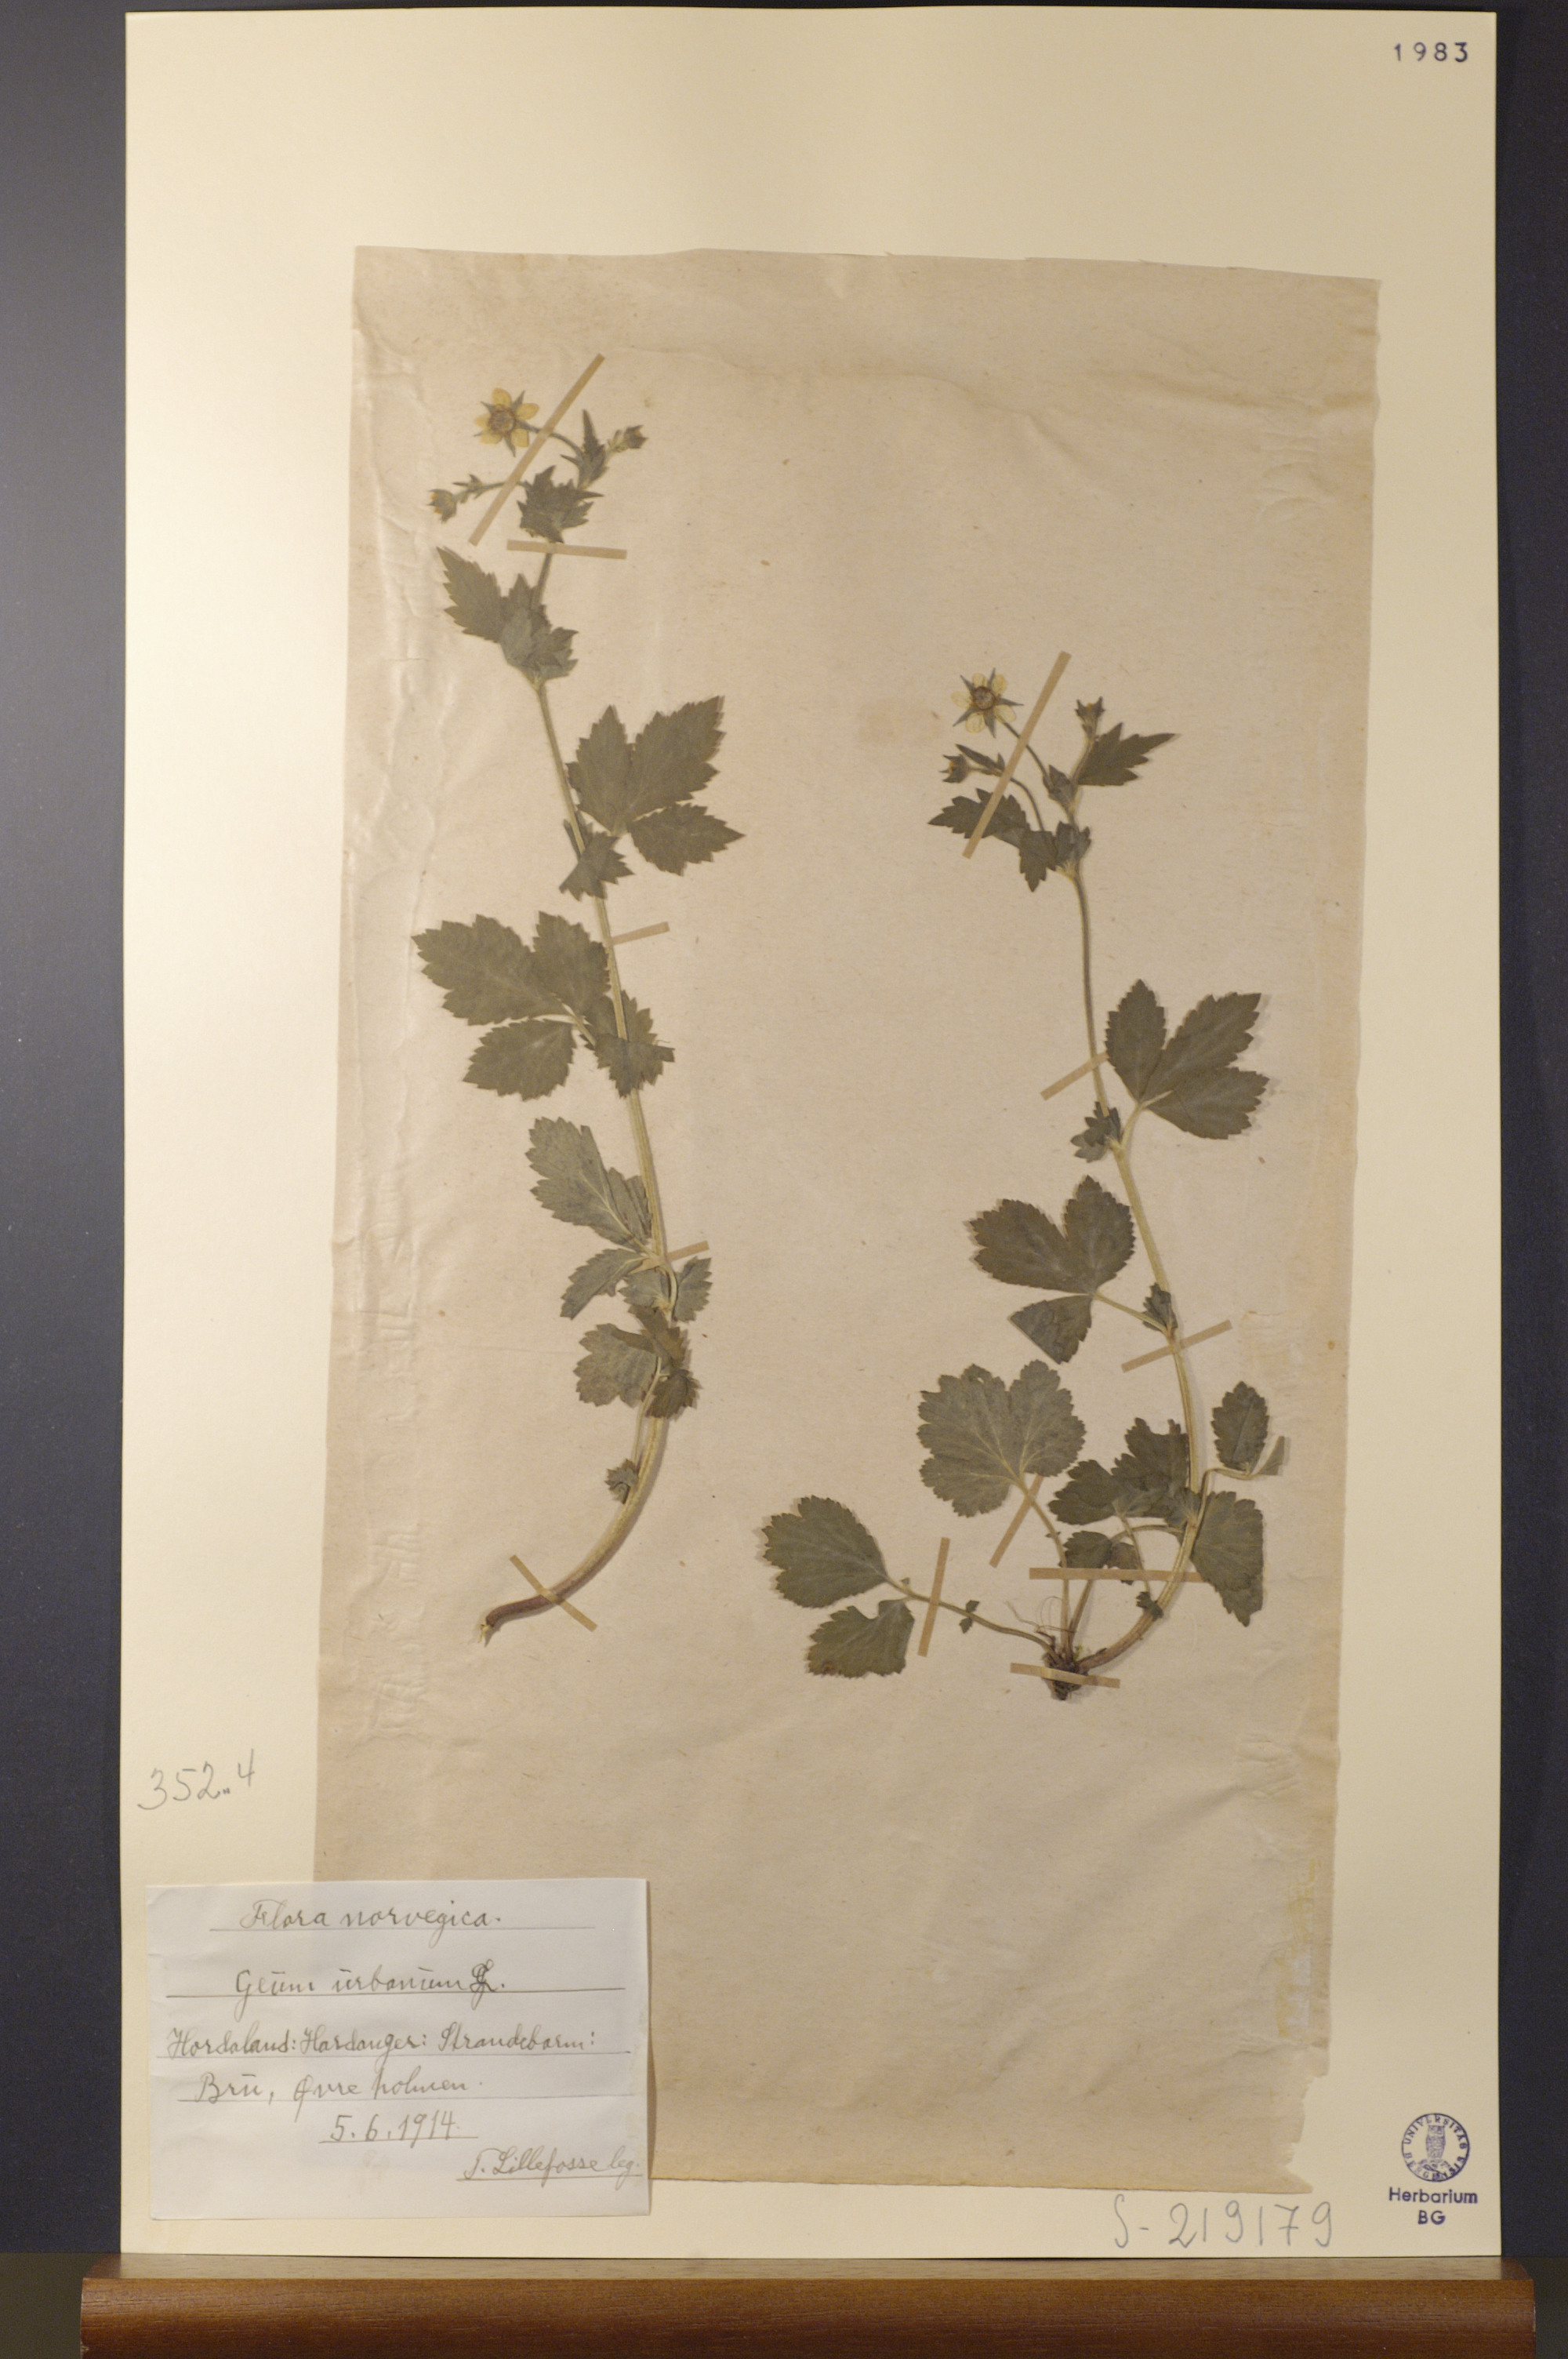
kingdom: Plantae
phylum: Tracheophyta
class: Magnoliopsida
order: Rosales
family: Rosaceae
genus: Geum
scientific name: Geum urbanum
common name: Wood avens
